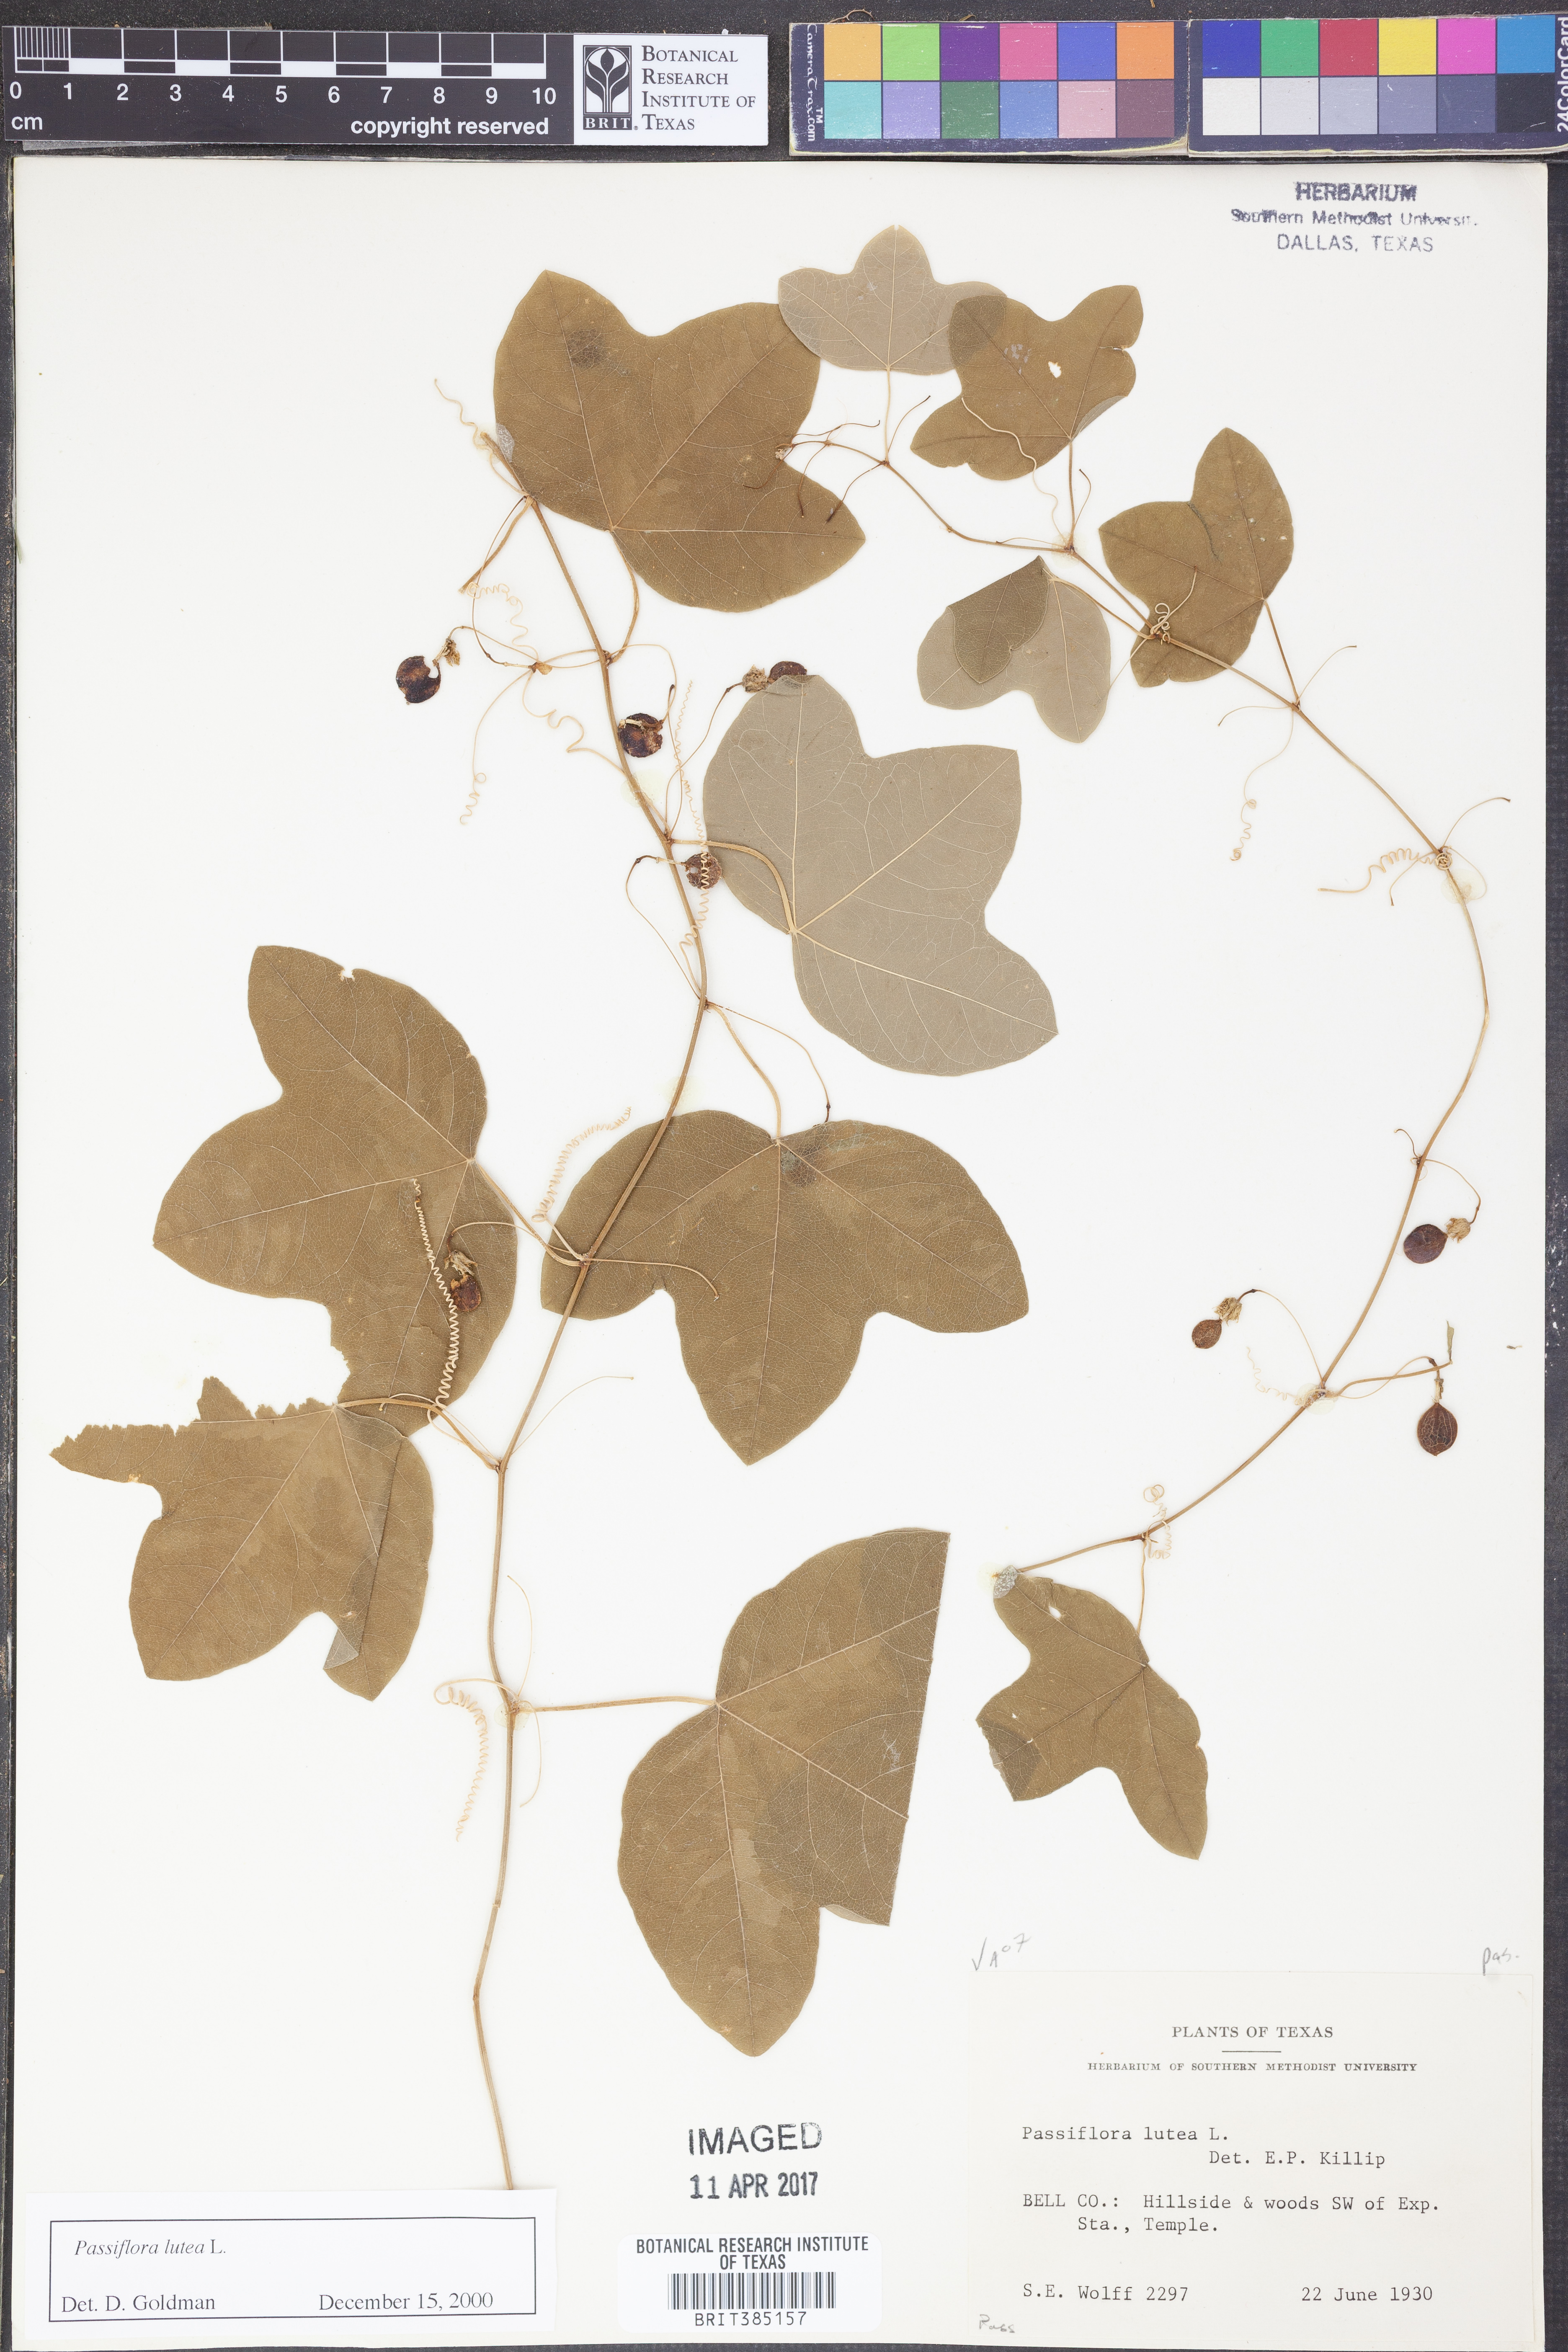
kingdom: Plantae
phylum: Tracheophyta
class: Magnoliopsida
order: Malpighiales
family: Passifloraceae
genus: Passiflora
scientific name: Passiflora lutea
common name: Yellow passionflower
